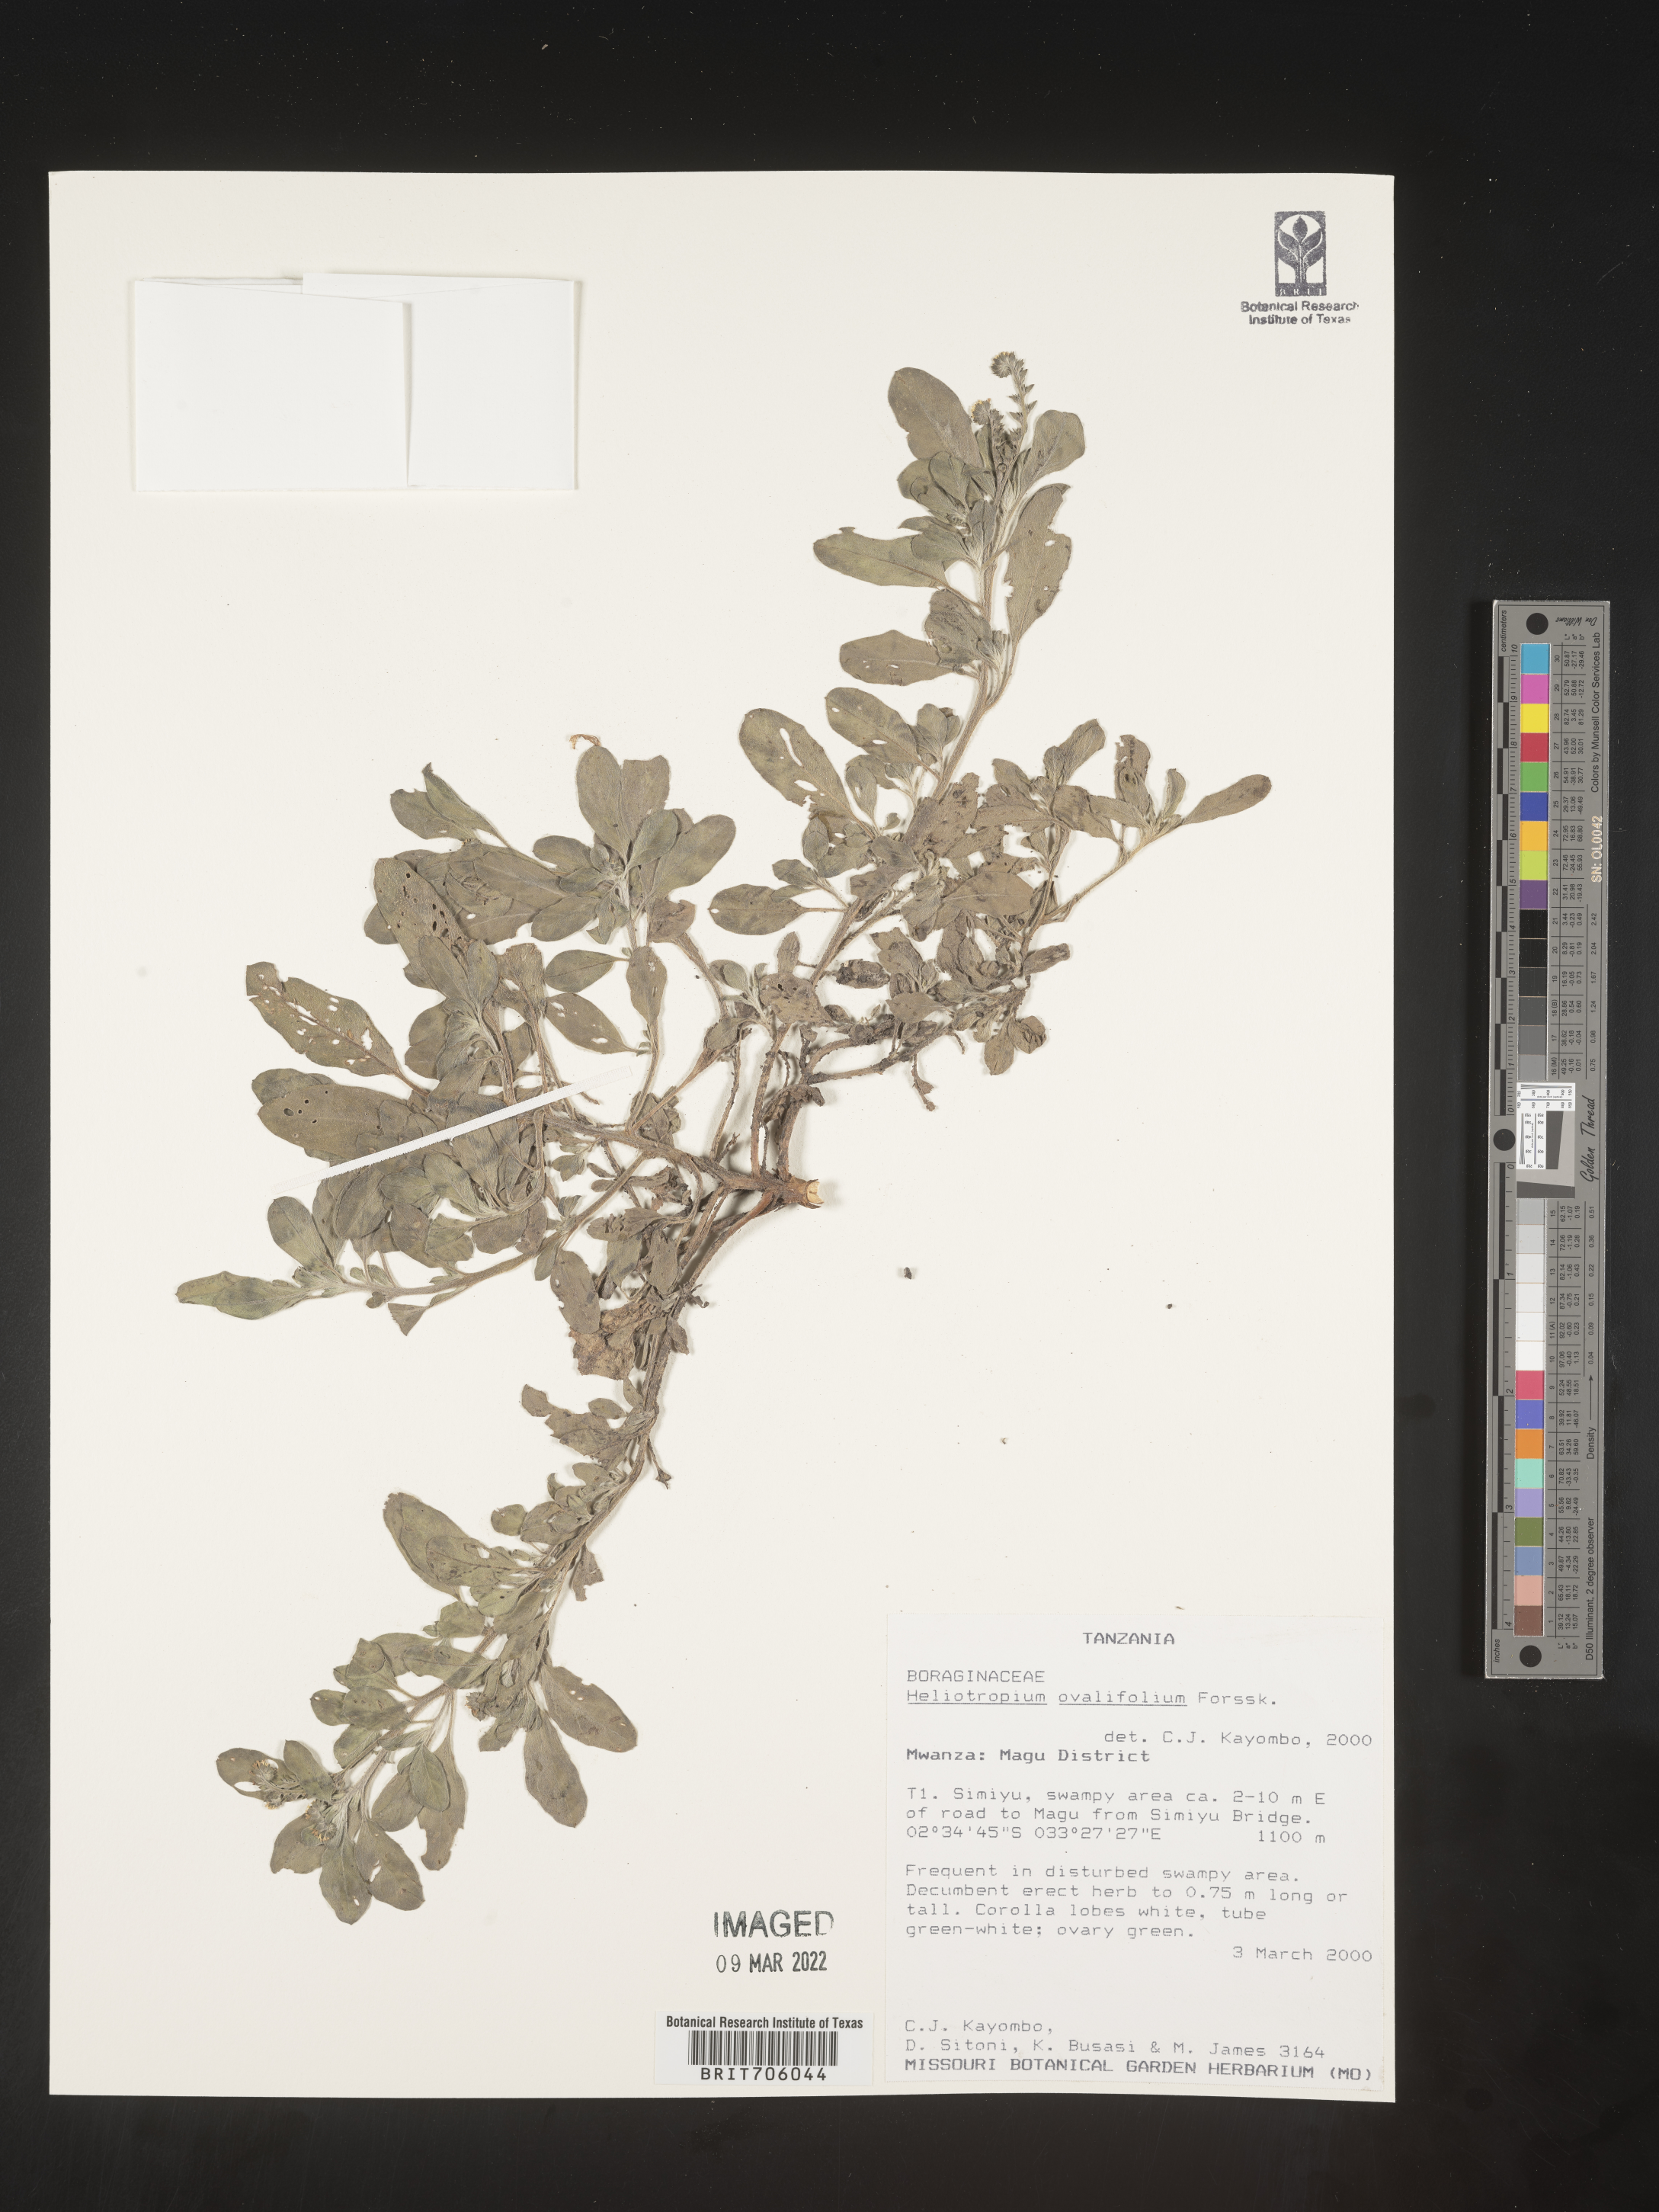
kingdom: Plantae
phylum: Tracheophyta
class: Magnoliopsida
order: Boraginales
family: Heliotropiaceae
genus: Heliotropium
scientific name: Heliotropium
